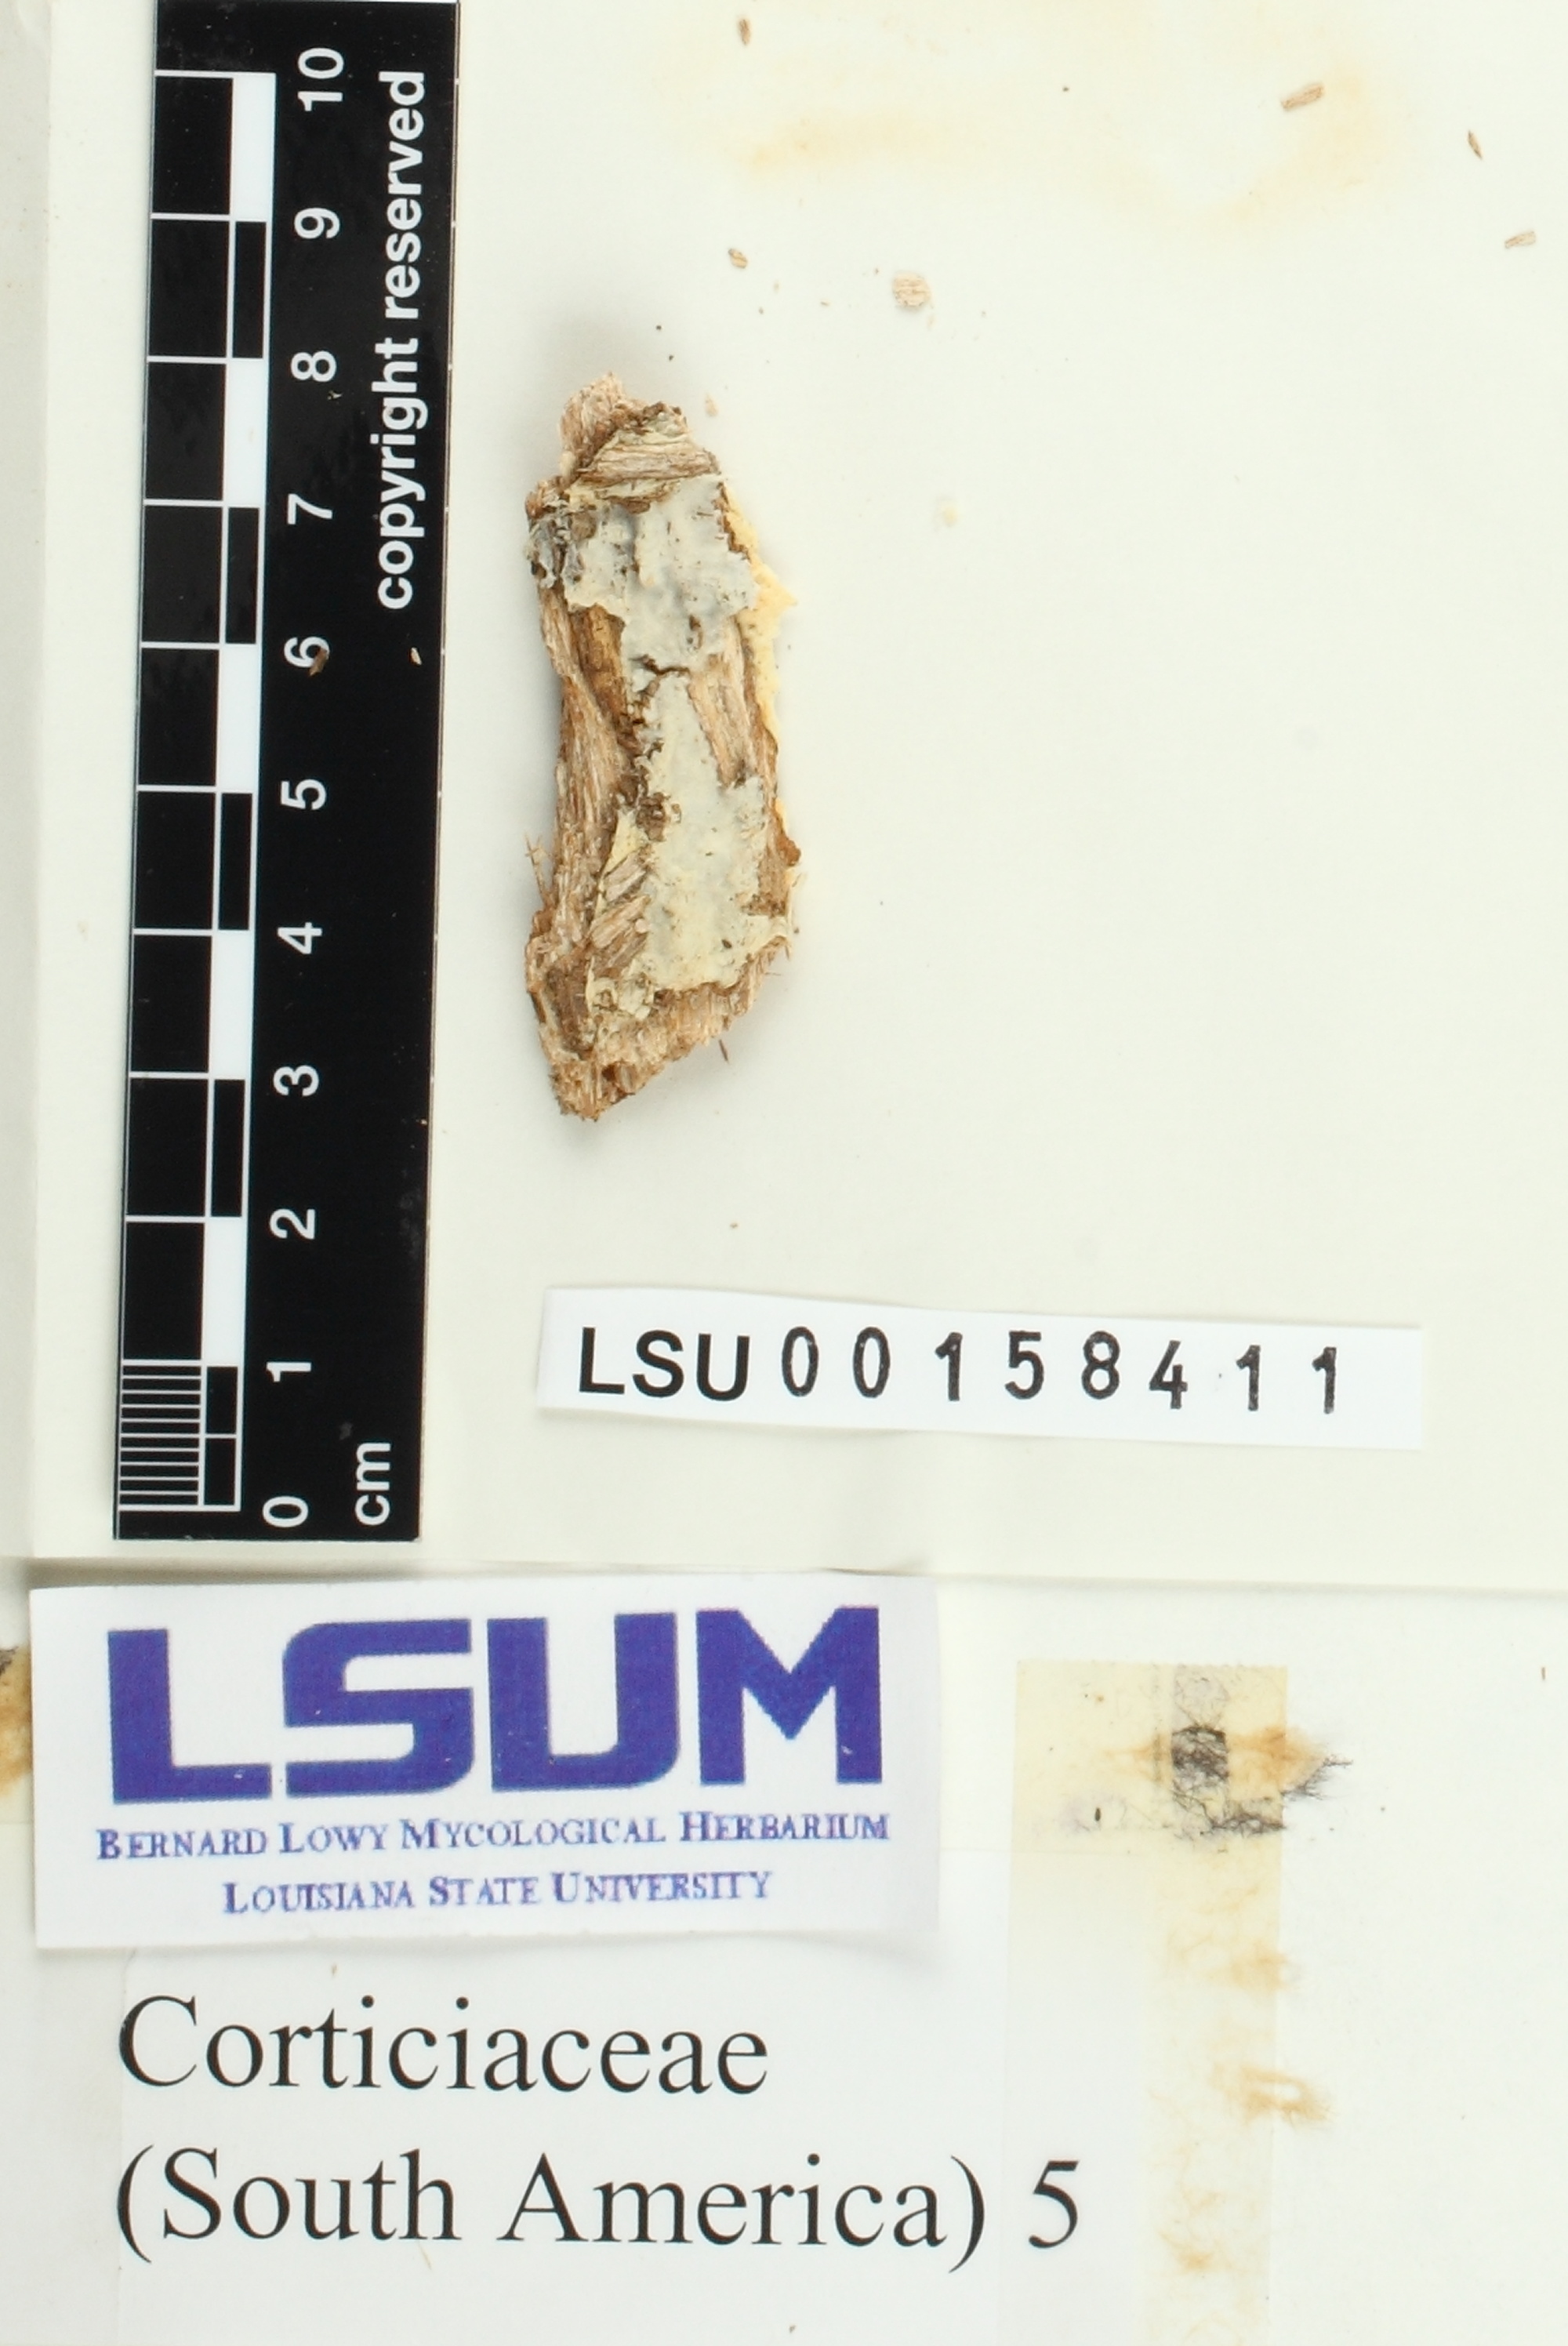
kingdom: Fungi
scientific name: Fungi
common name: Fungi
